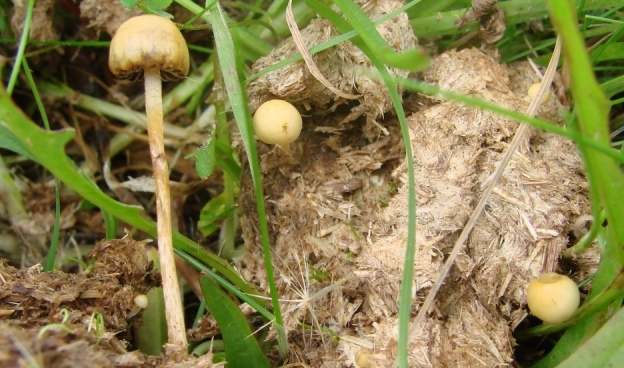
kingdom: Fungi
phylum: Basidiomycota
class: Agaricomycetes
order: Agaricales
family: Strophariaceae
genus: Protostropharia
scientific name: Protostropharia semiglobata
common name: halvkugleformet bredblad
